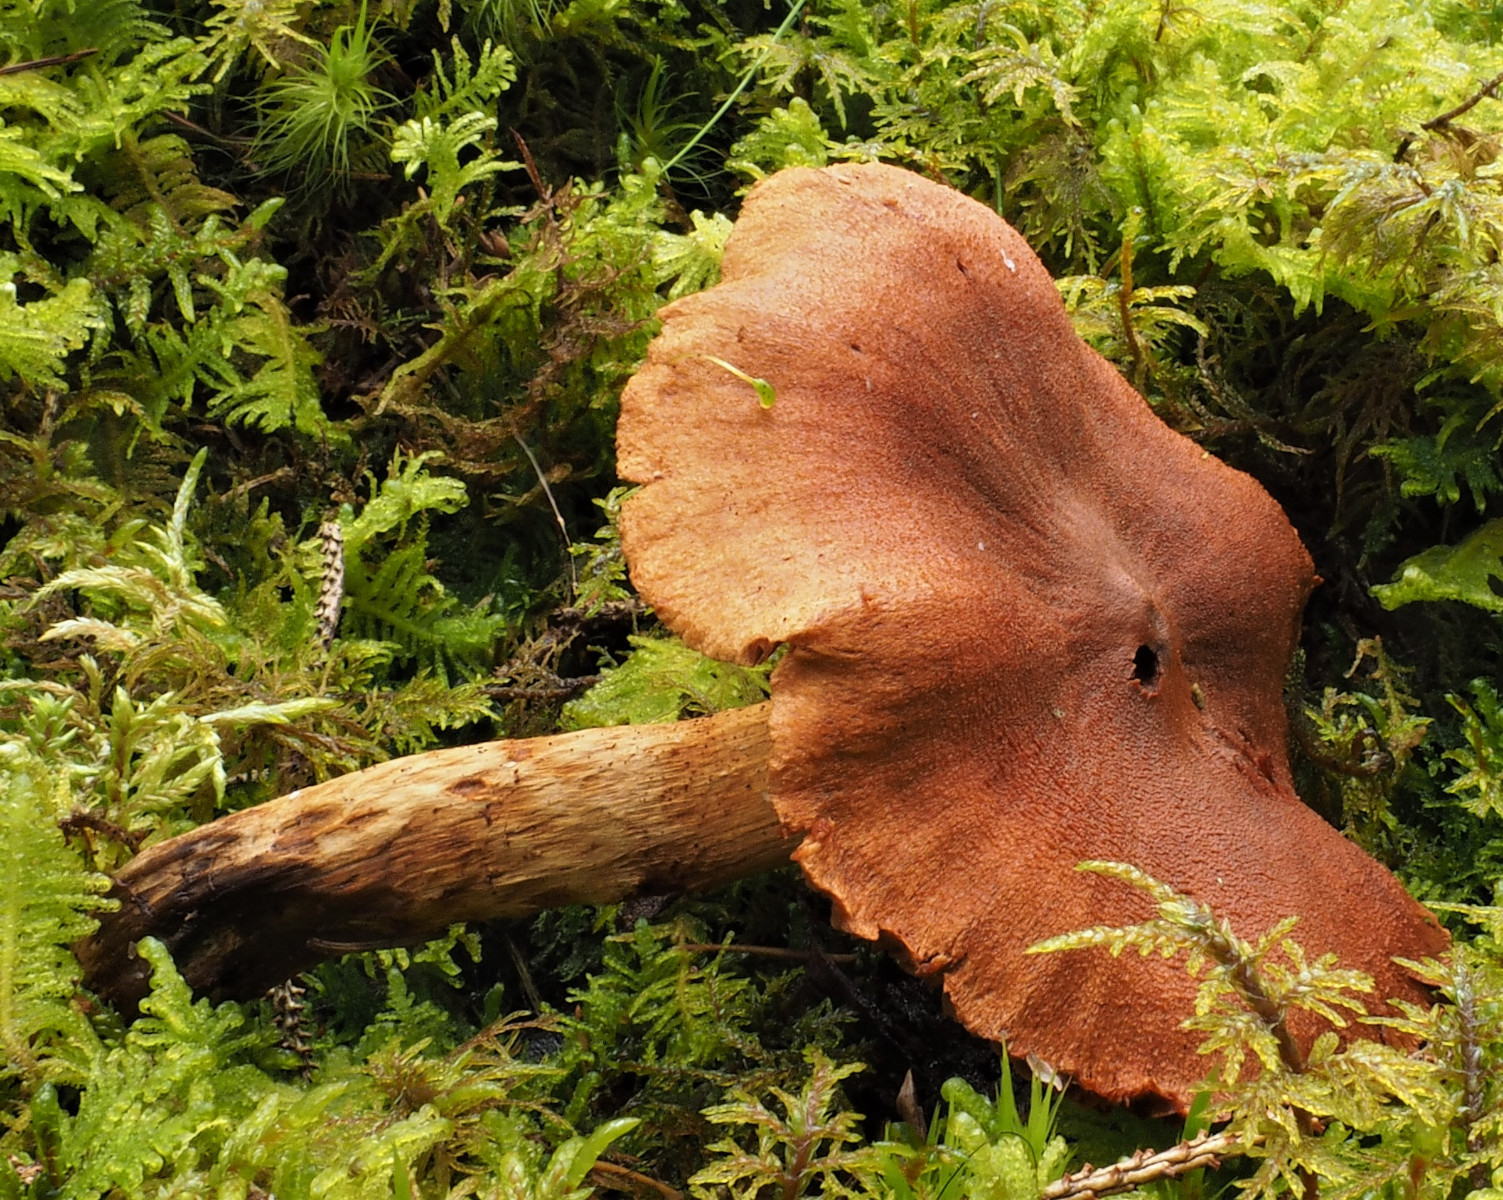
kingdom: Fungi
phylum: Basidiomycota
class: Agaricomycetes
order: Agaricales
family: Cortinariaceae
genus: Cortinarius
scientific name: Cortinarius rubellus
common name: puklet gift-slørhat
